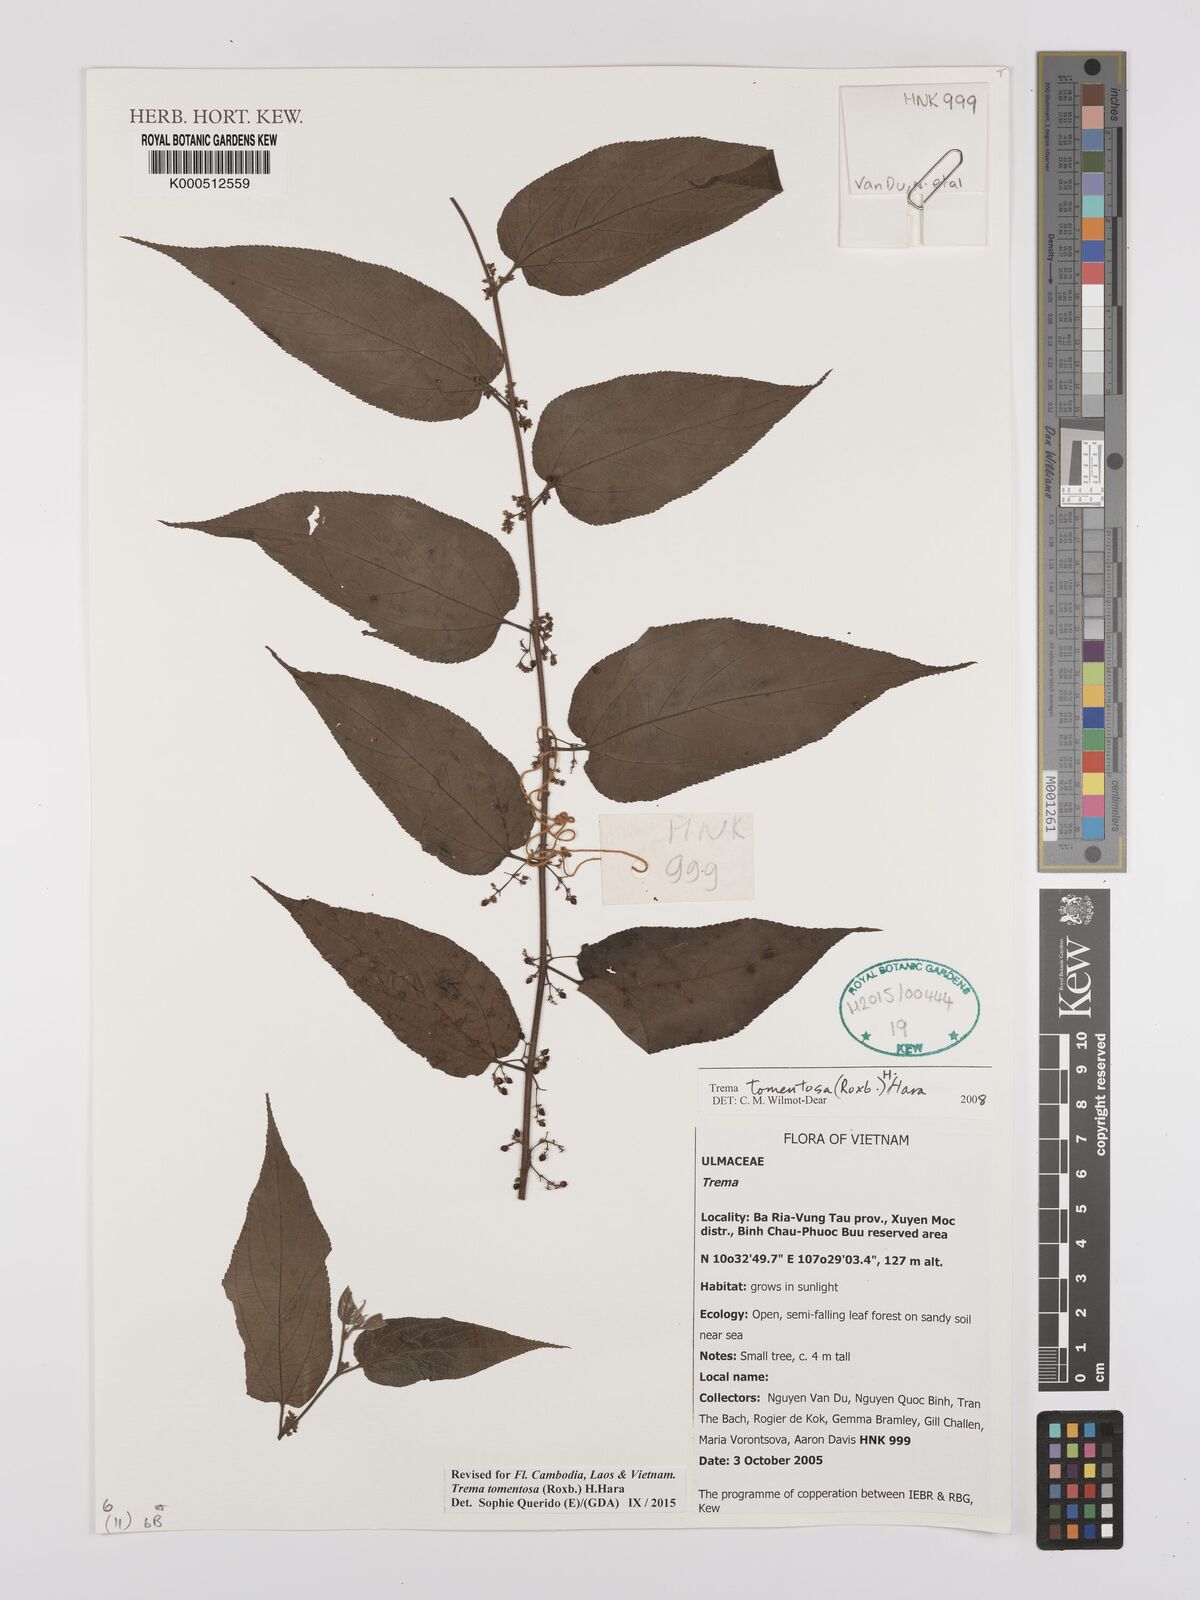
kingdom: Plantae
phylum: Tracheophyta
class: Magnoliopsida
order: Rosales
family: Cannabaceae
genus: Trema
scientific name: Trema tomentosum
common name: Peach-leaf-poisonbush
